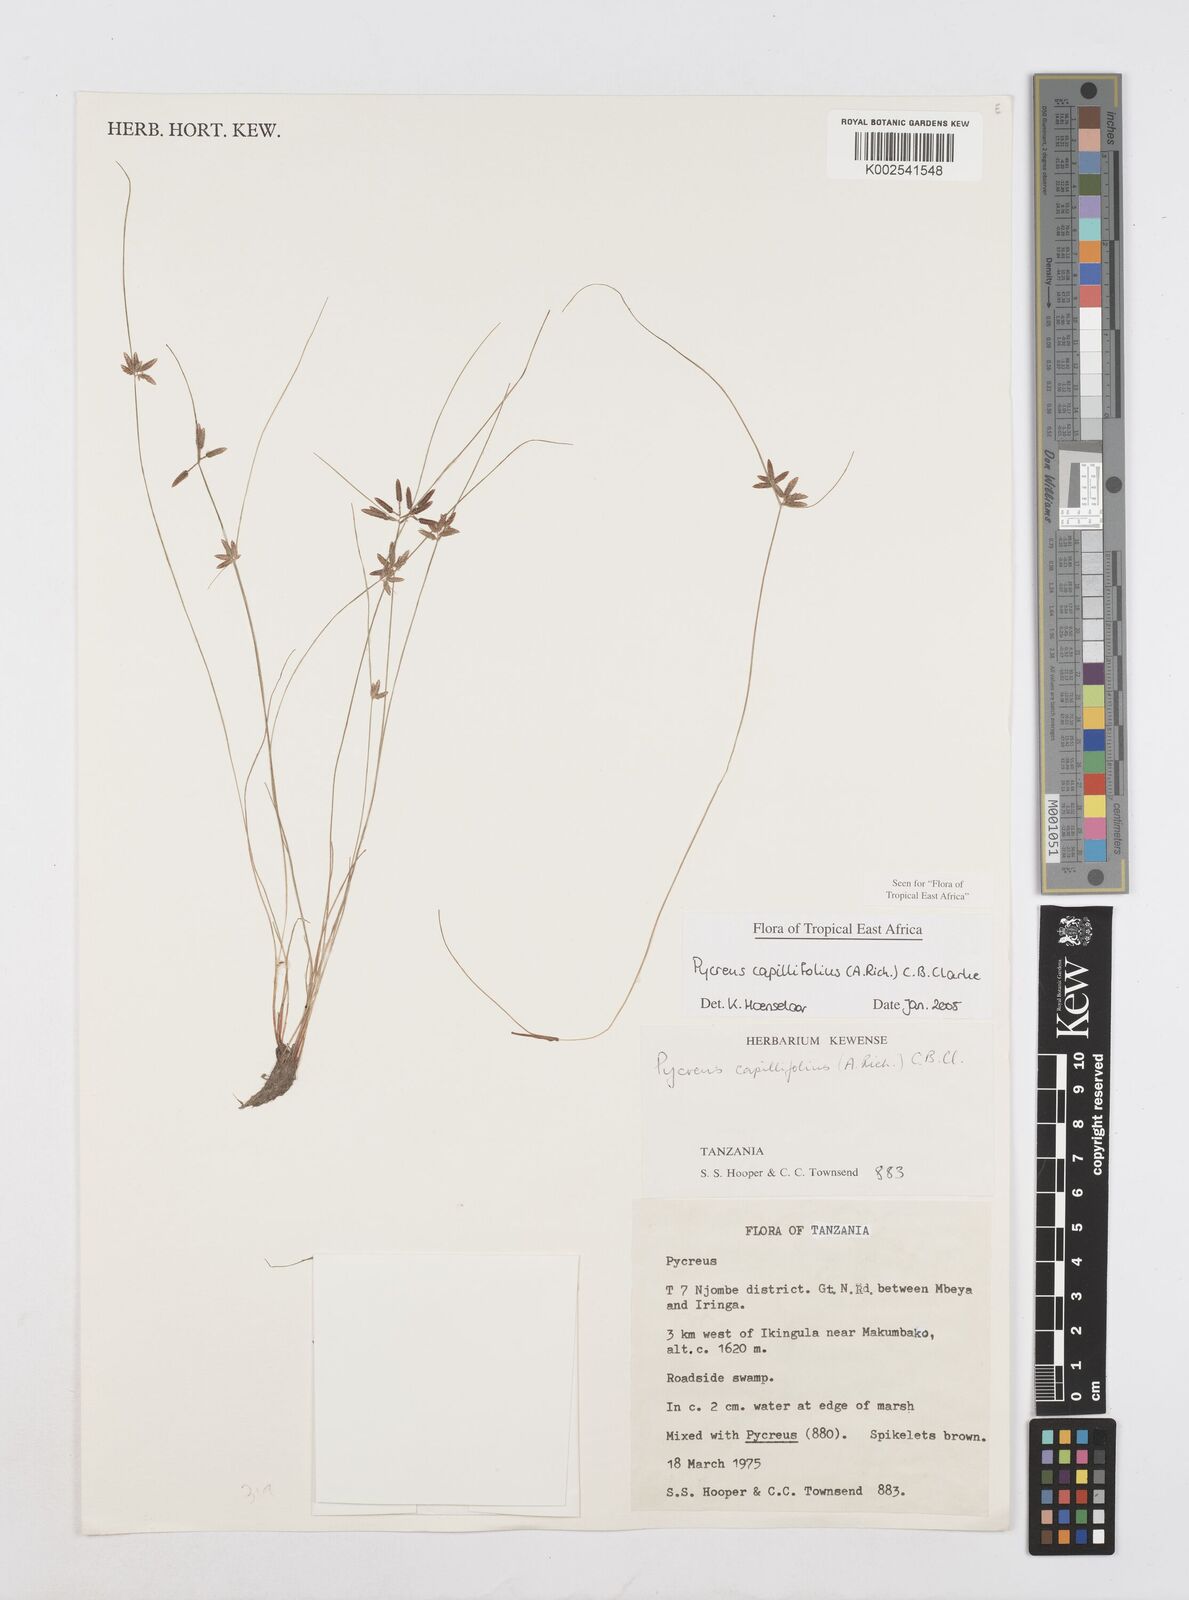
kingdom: Plantae
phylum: Tracheophyta
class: Liliopsida
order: Poales
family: Cyperaceae
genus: Cyperus
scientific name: Cyperus capillifolius
